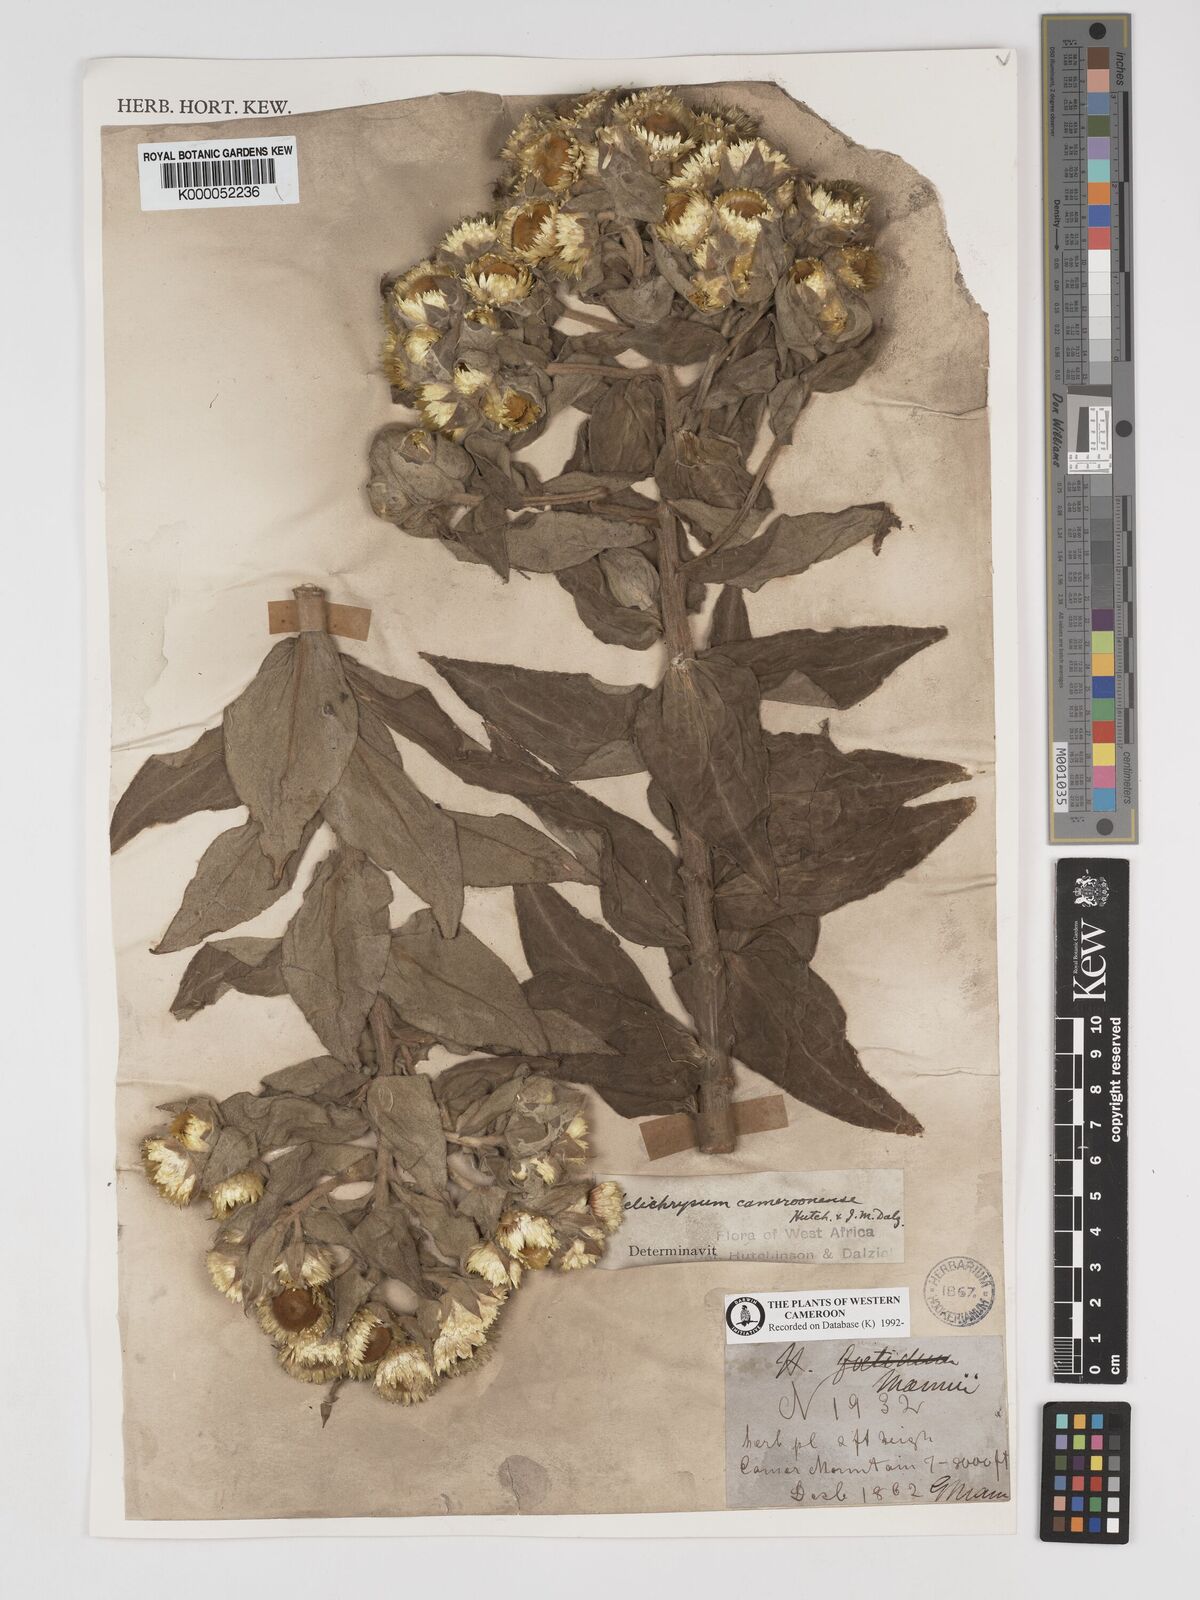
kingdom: Plantae
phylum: Tracheophyta
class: Magnoliopsida
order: Asterales
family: Asteraceae
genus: Helichrysum
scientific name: Helichrysum cameroonense
